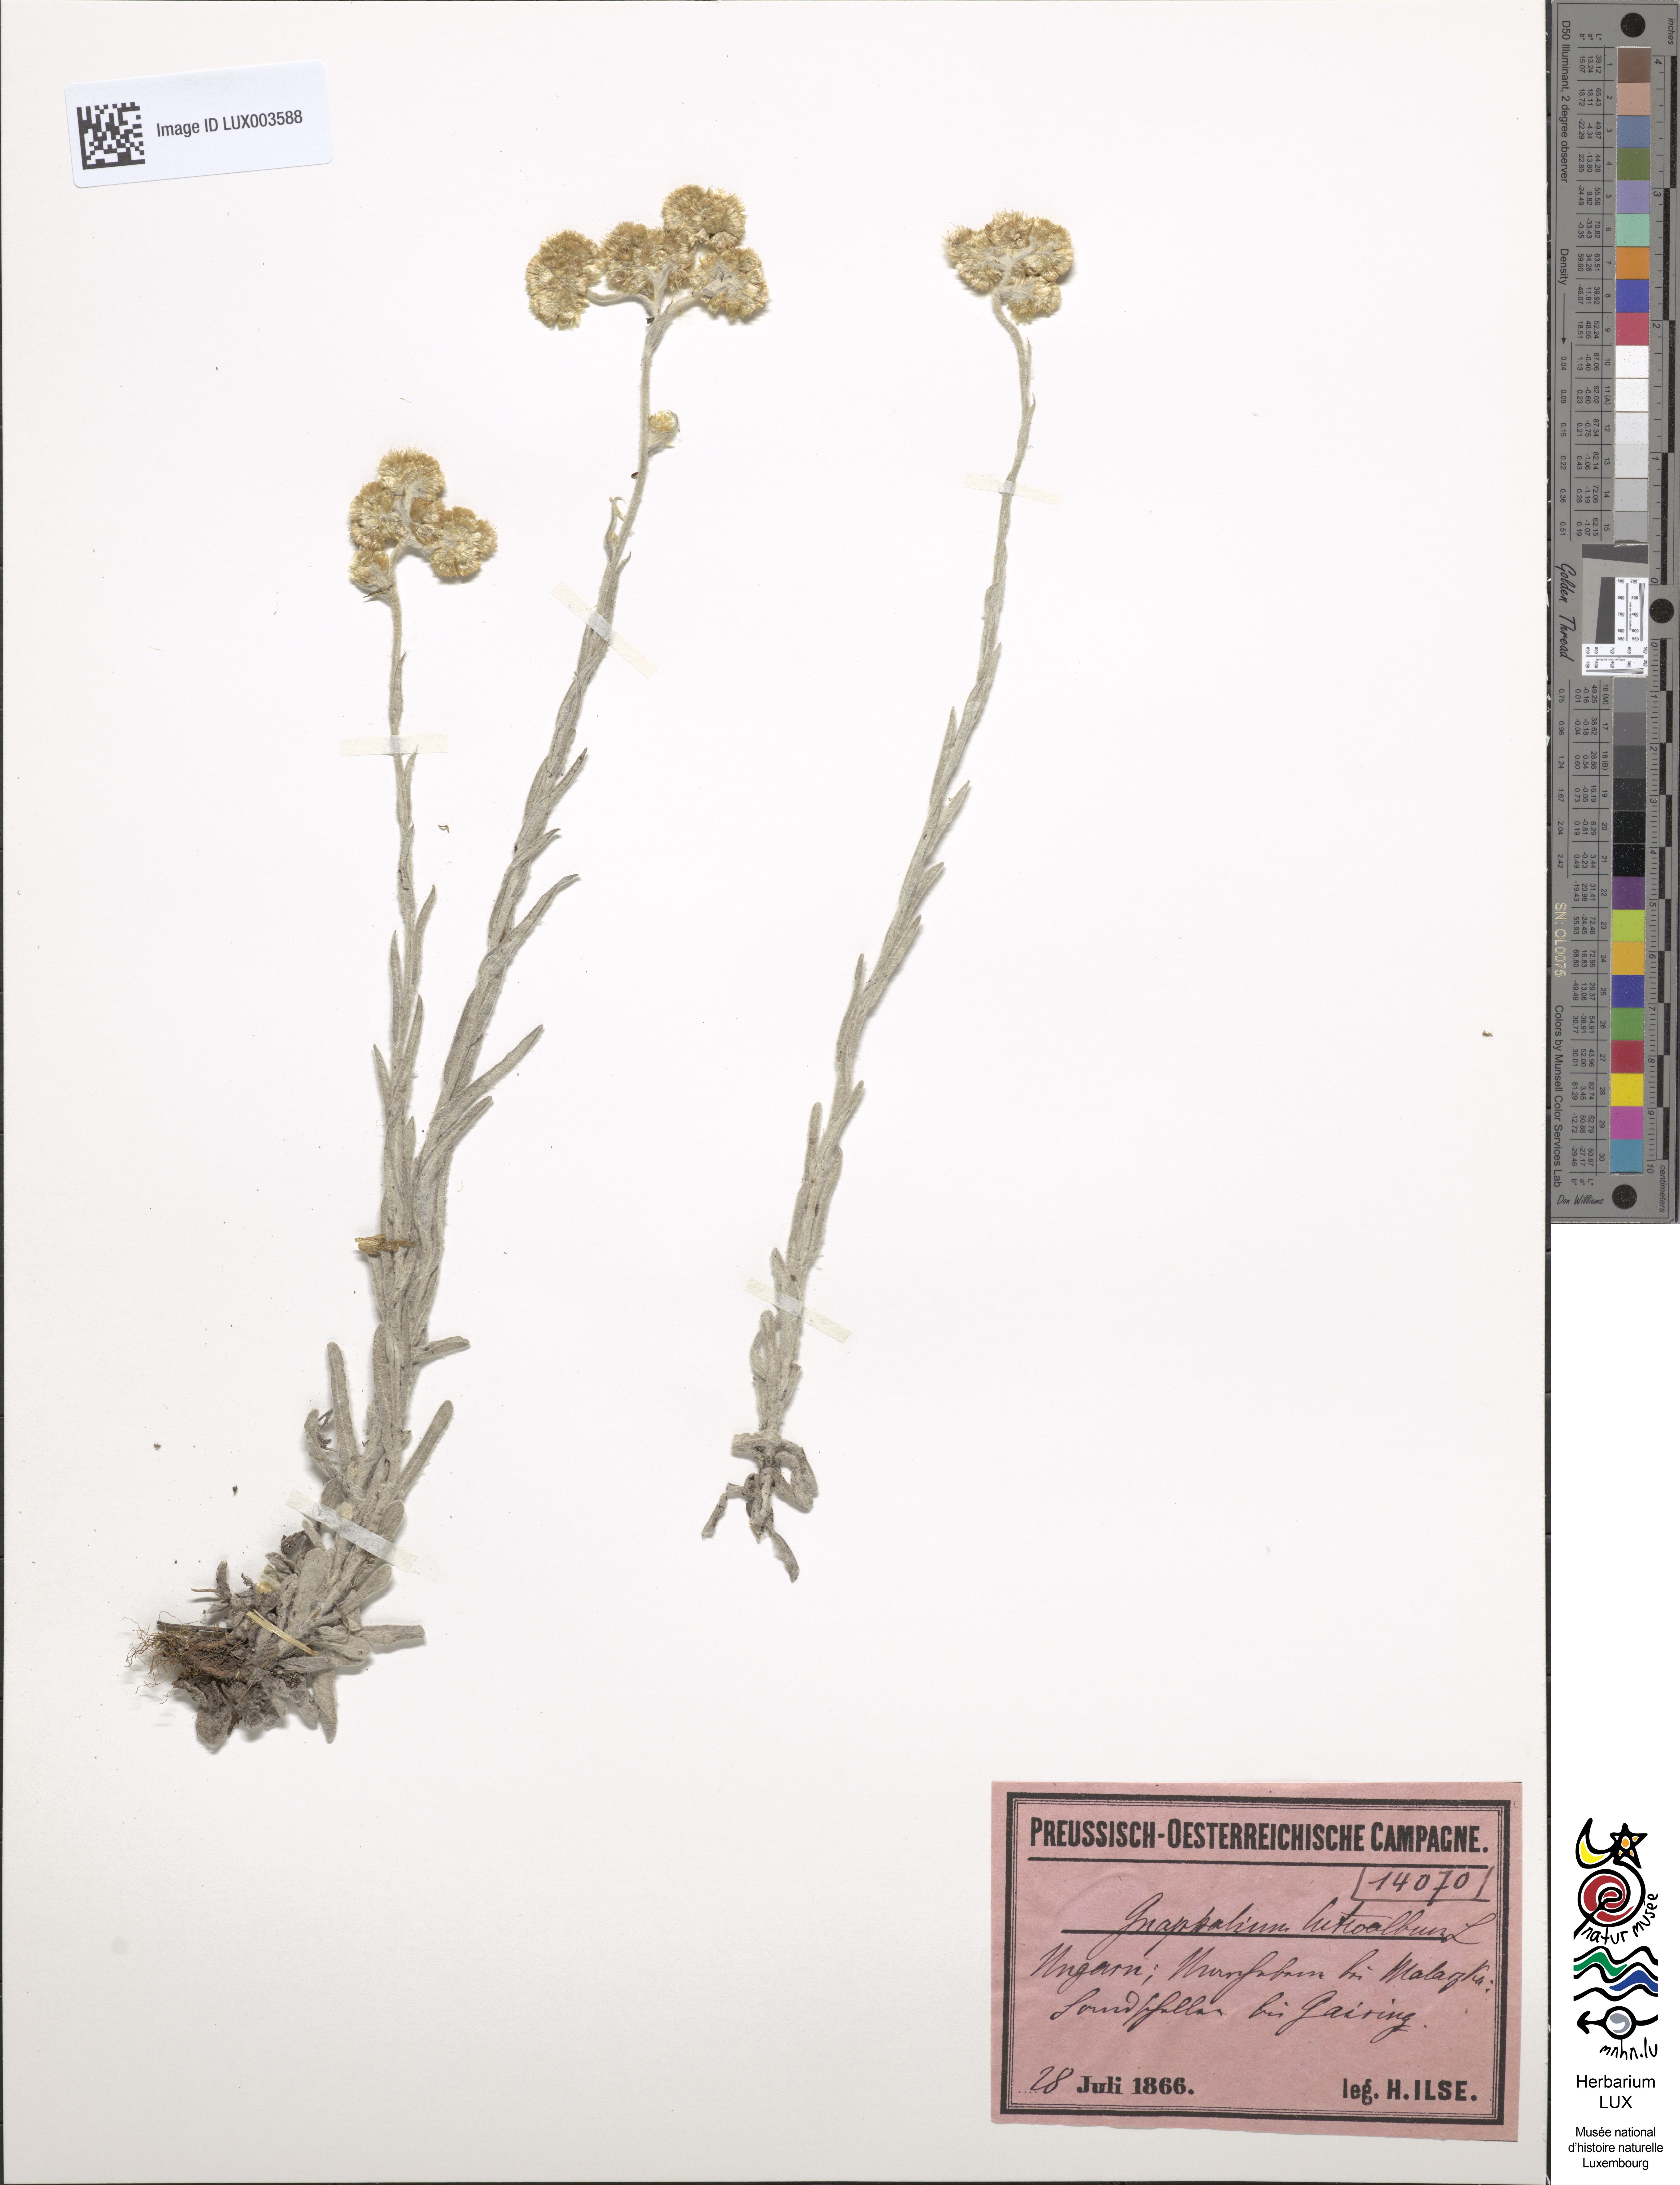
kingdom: Plantae
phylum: Tracheophyta
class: Magnoliopsida
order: Asterales
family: Asteraceae
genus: Helichrysum
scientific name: Helichrysum luteoalbum
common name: Daisy
